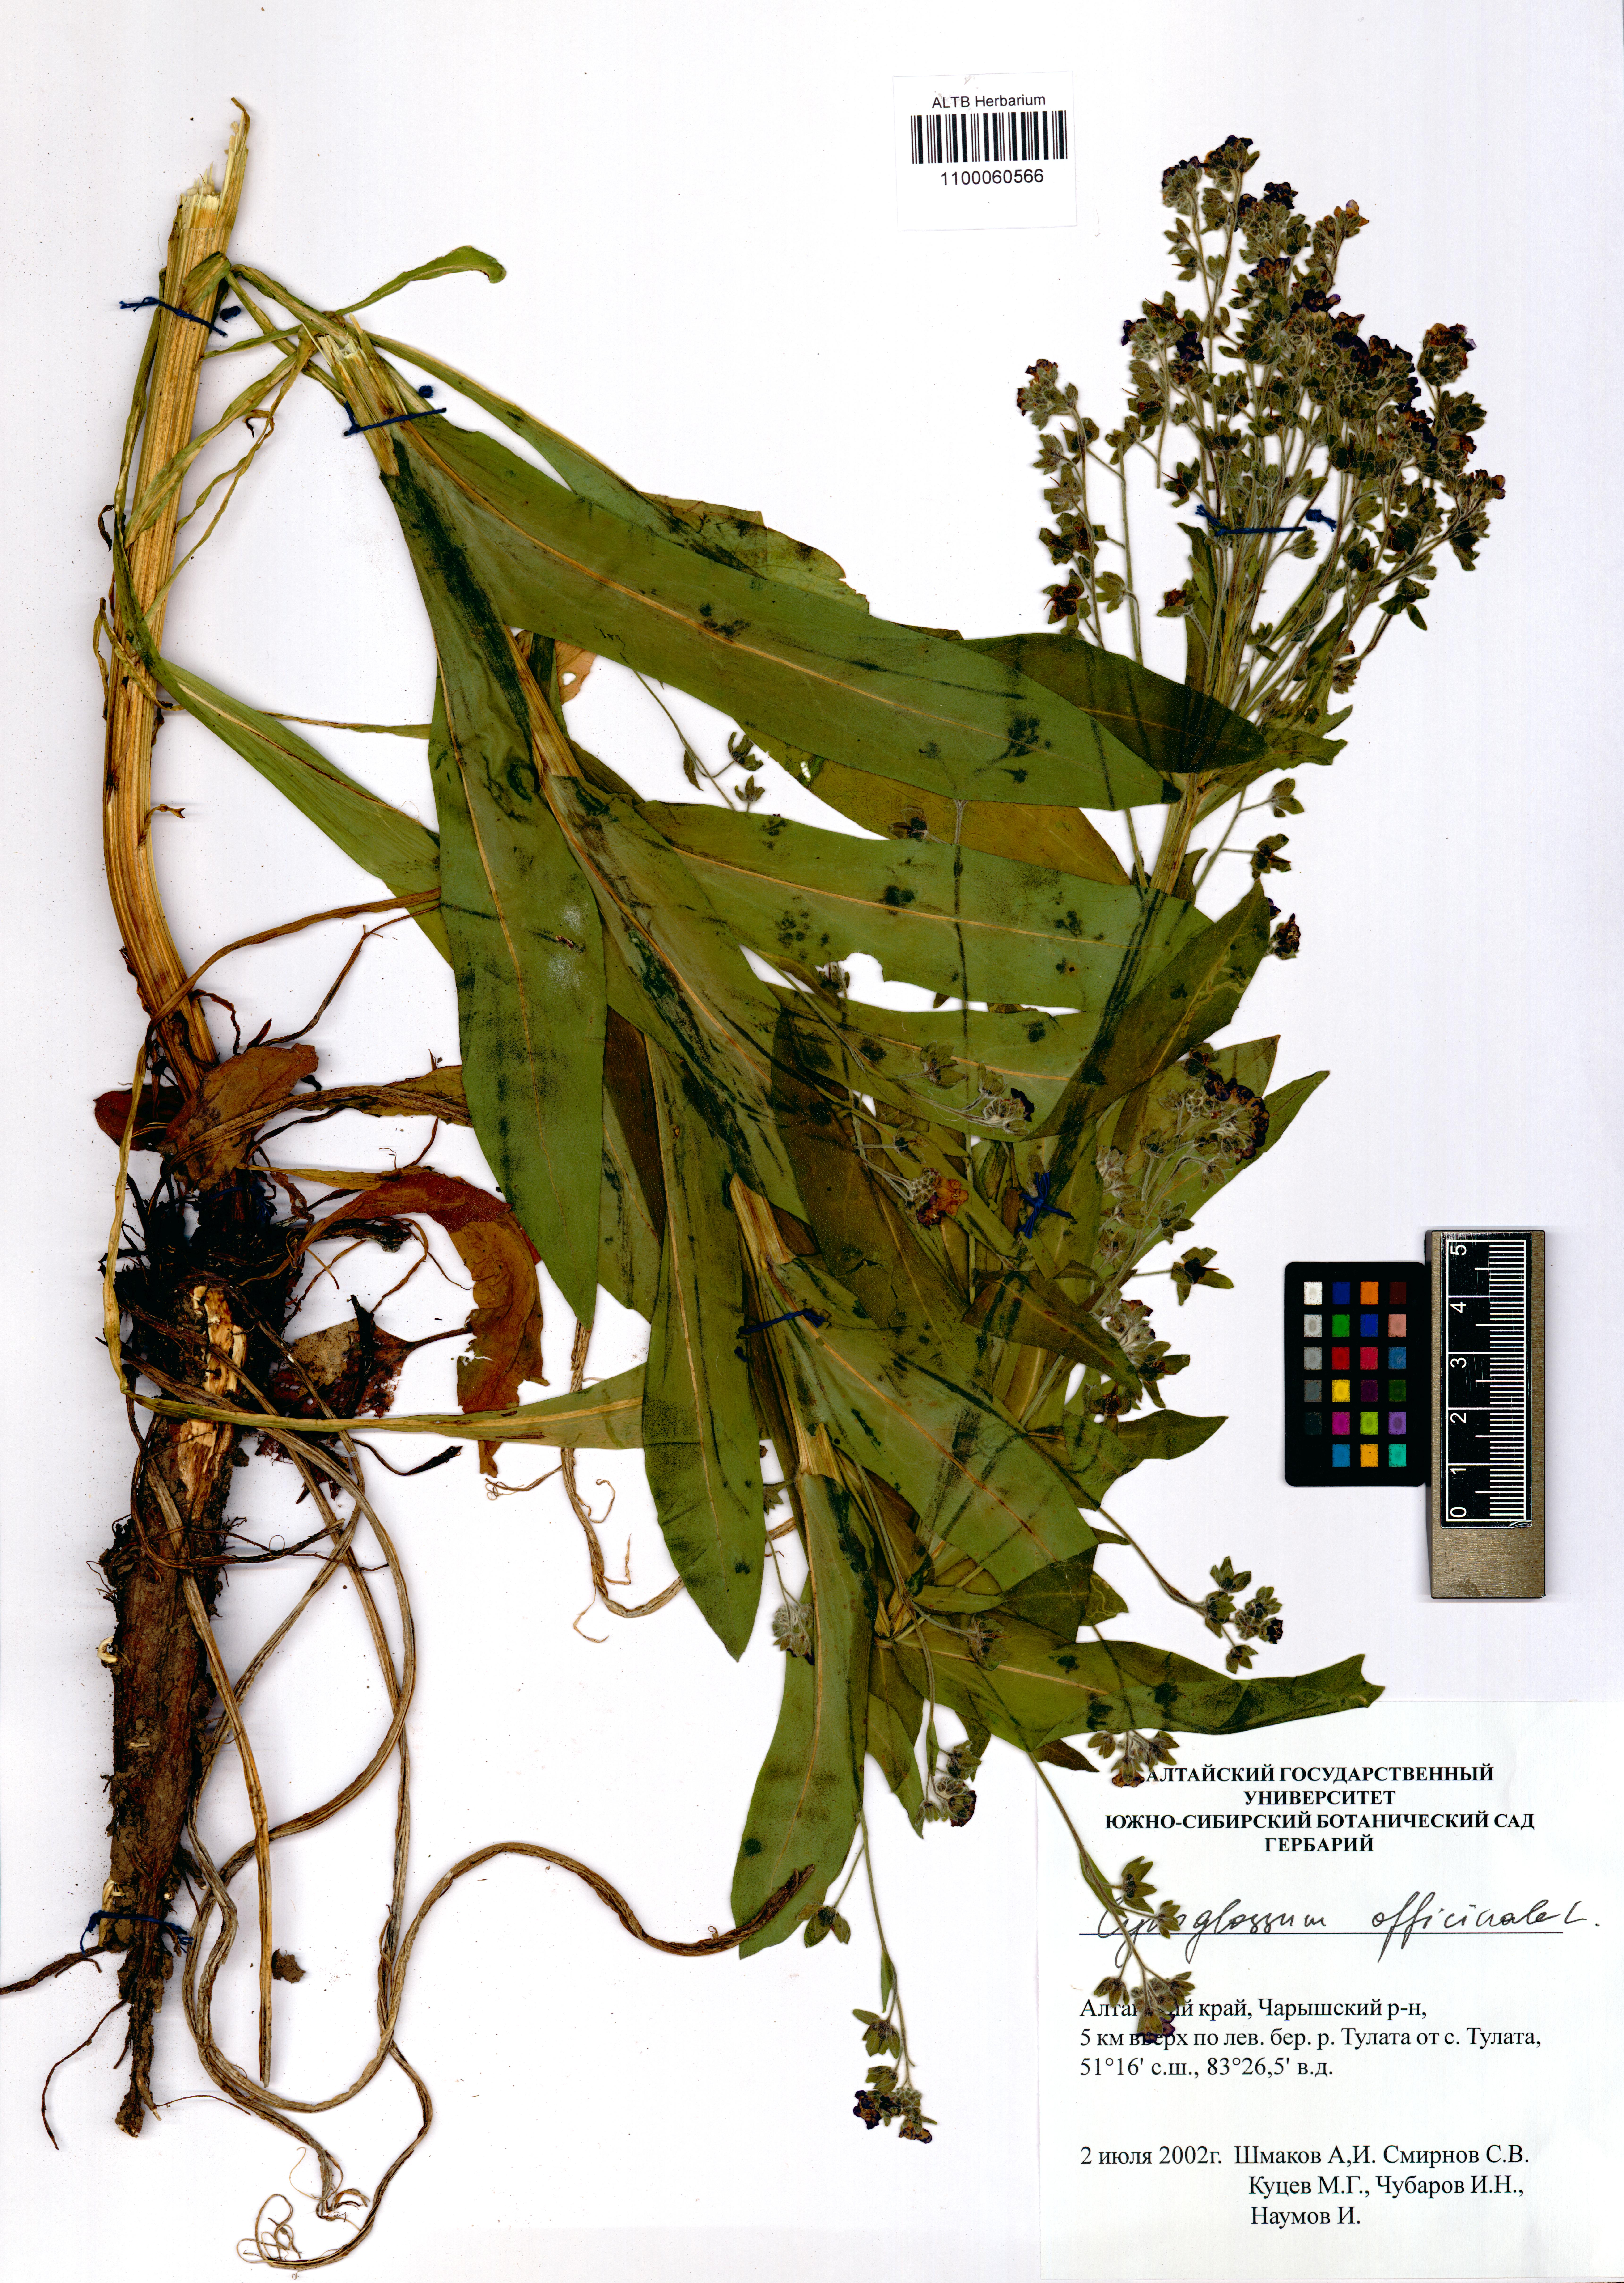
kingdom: Plantae
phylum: Tracheophyta
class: Magnoliopsida
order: Boraginales
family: Boraginaceae
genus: Cynoglossum
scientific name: Cynoglossum officinale
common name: Hound's-tongue
